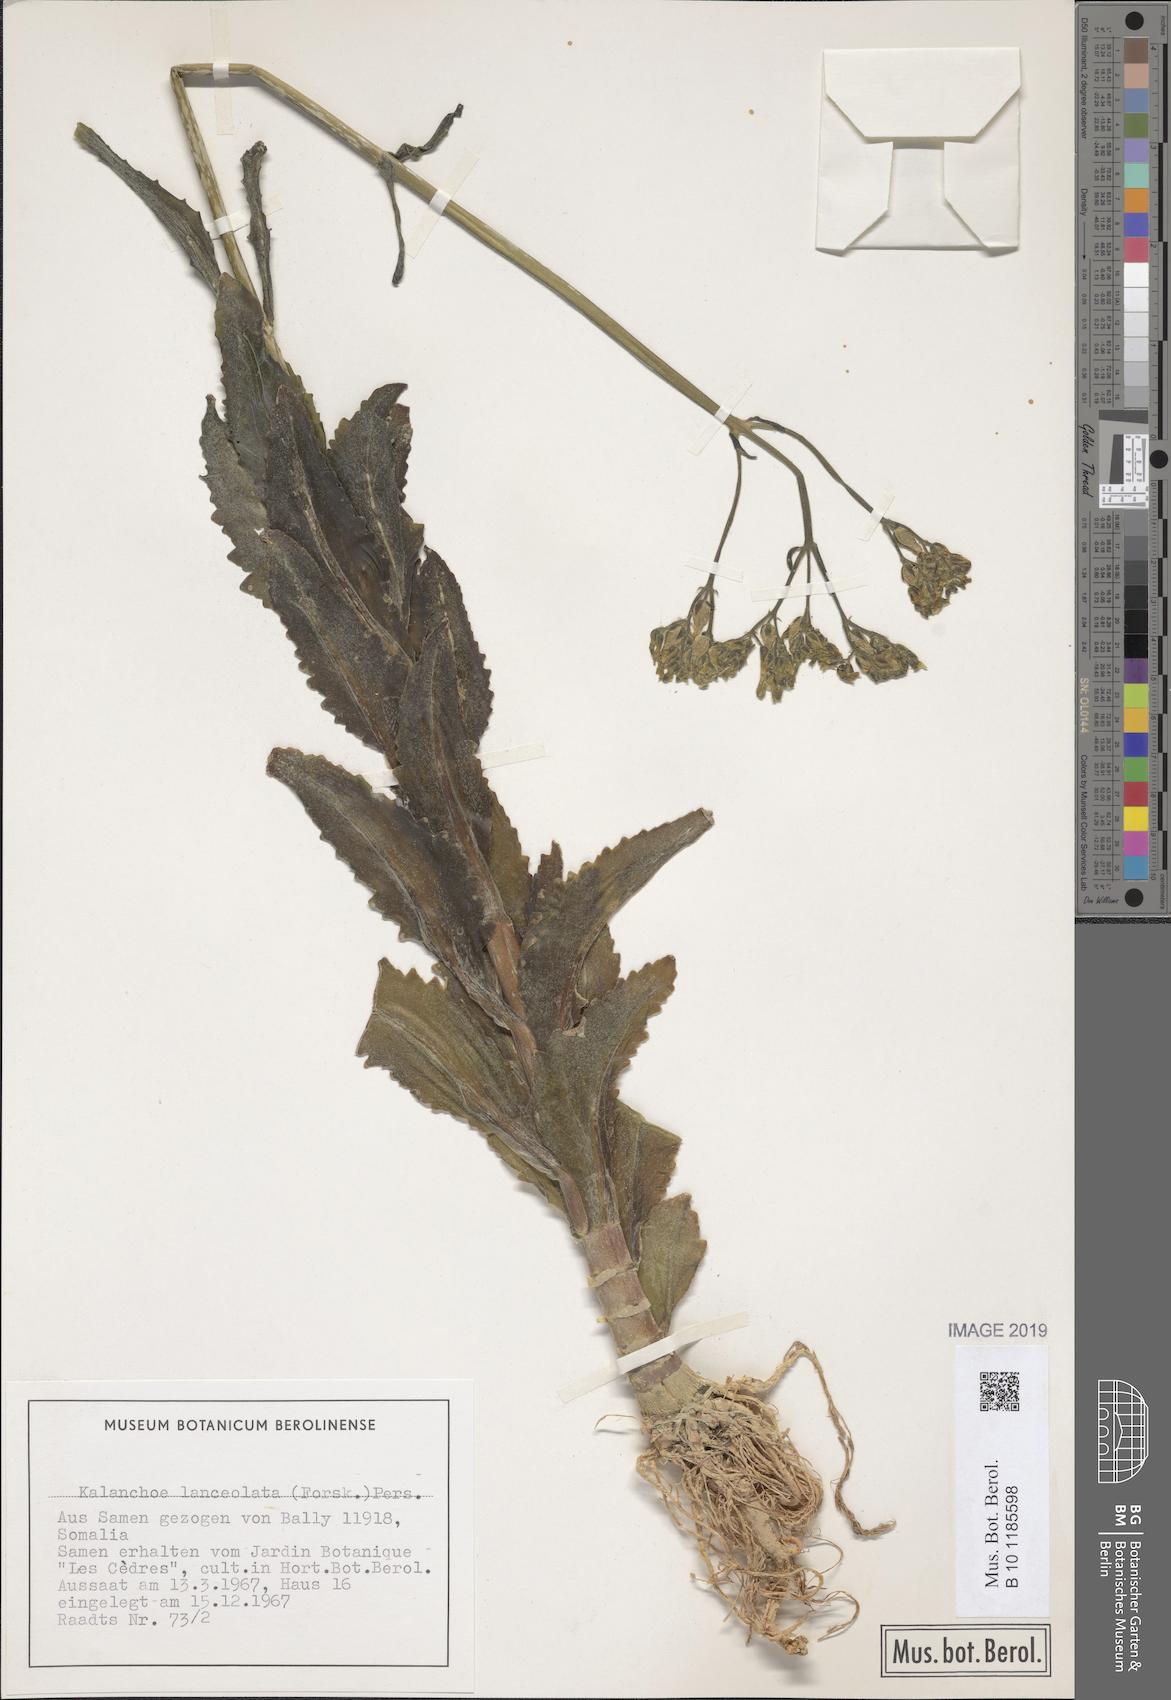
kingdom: Plantae
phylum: Tracheophyta
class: Magnoliopsida
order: Saxifragales
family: Crassulaceae
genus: Kalanchoe
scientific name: Kalanchoe lanceolata
